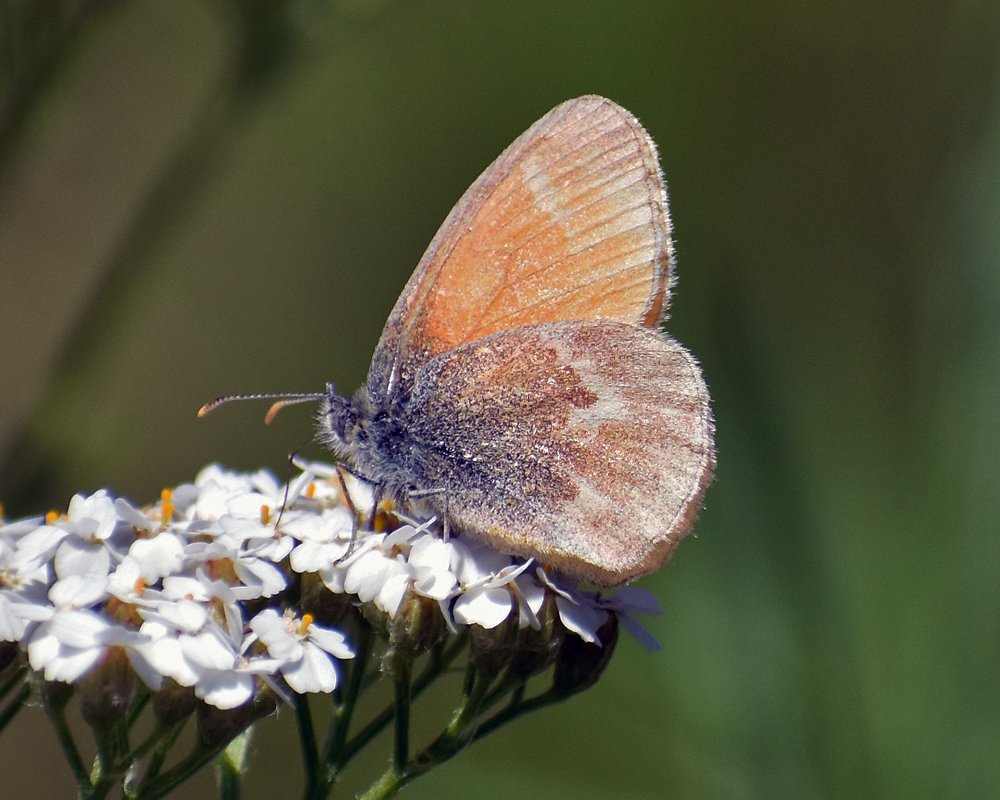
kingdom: Animalia
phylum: Arthropoda
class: Insecta
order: Lepidoptera
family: Nymphalidae
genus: Coenonympha
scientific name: Coenonympha tullia
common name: Large Heath
